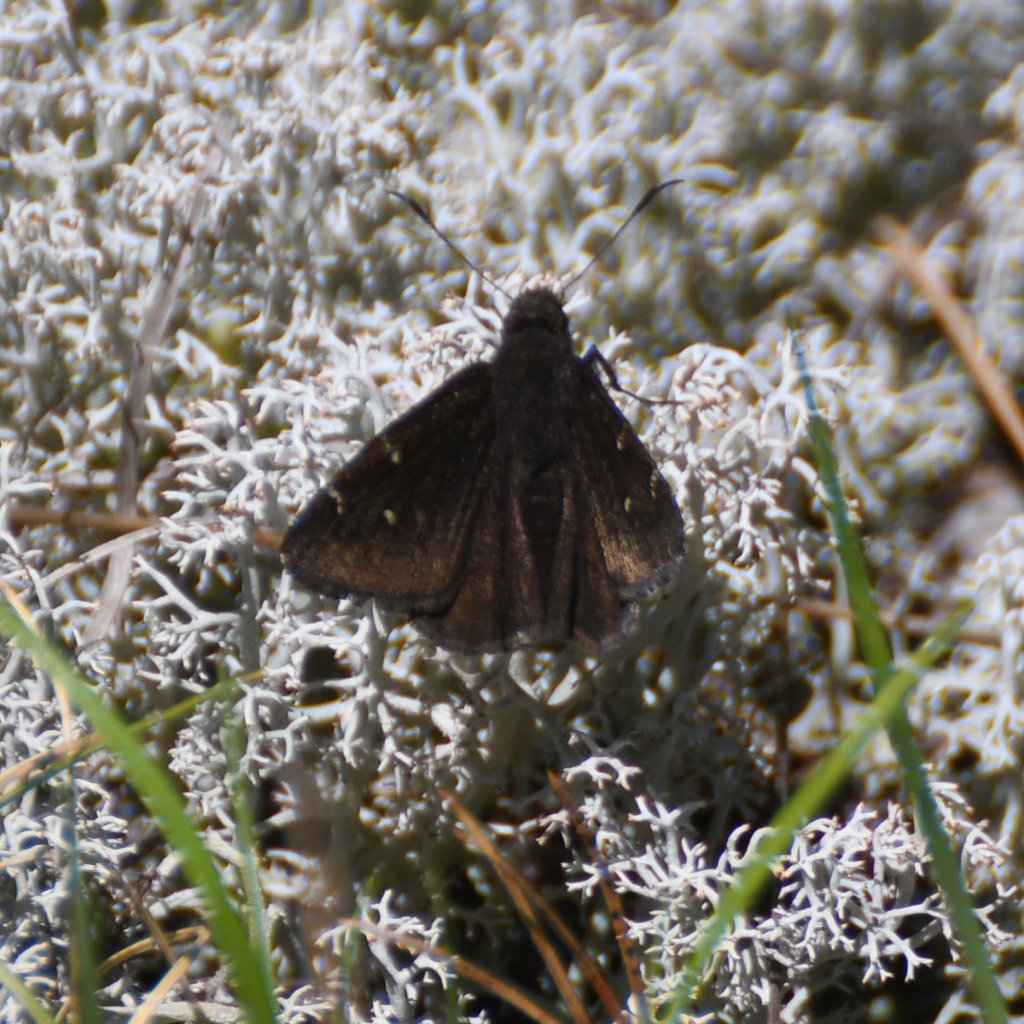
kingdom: Animalia
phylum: Arthropoda
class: Insecta
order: Lepidoptera
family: Hesperiidae
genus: Autochton
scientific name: Autochton
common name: Northern Cloudywing
